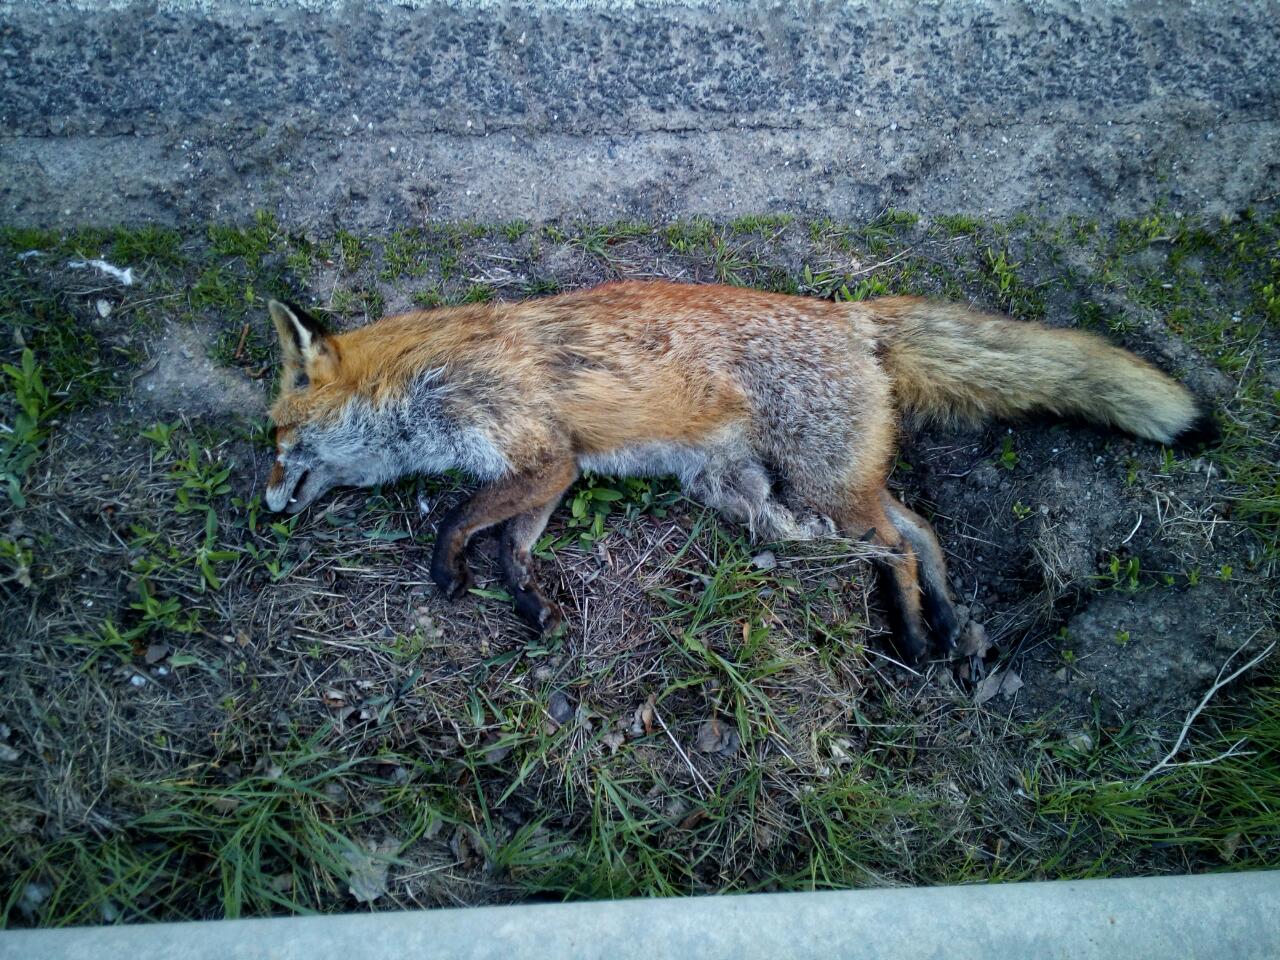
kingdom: Animalia
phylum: Chordata
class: Mammalia
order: Carnivora
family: Canidae
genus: Vulpes
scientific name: Vulpes vulpes
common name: Red fox
